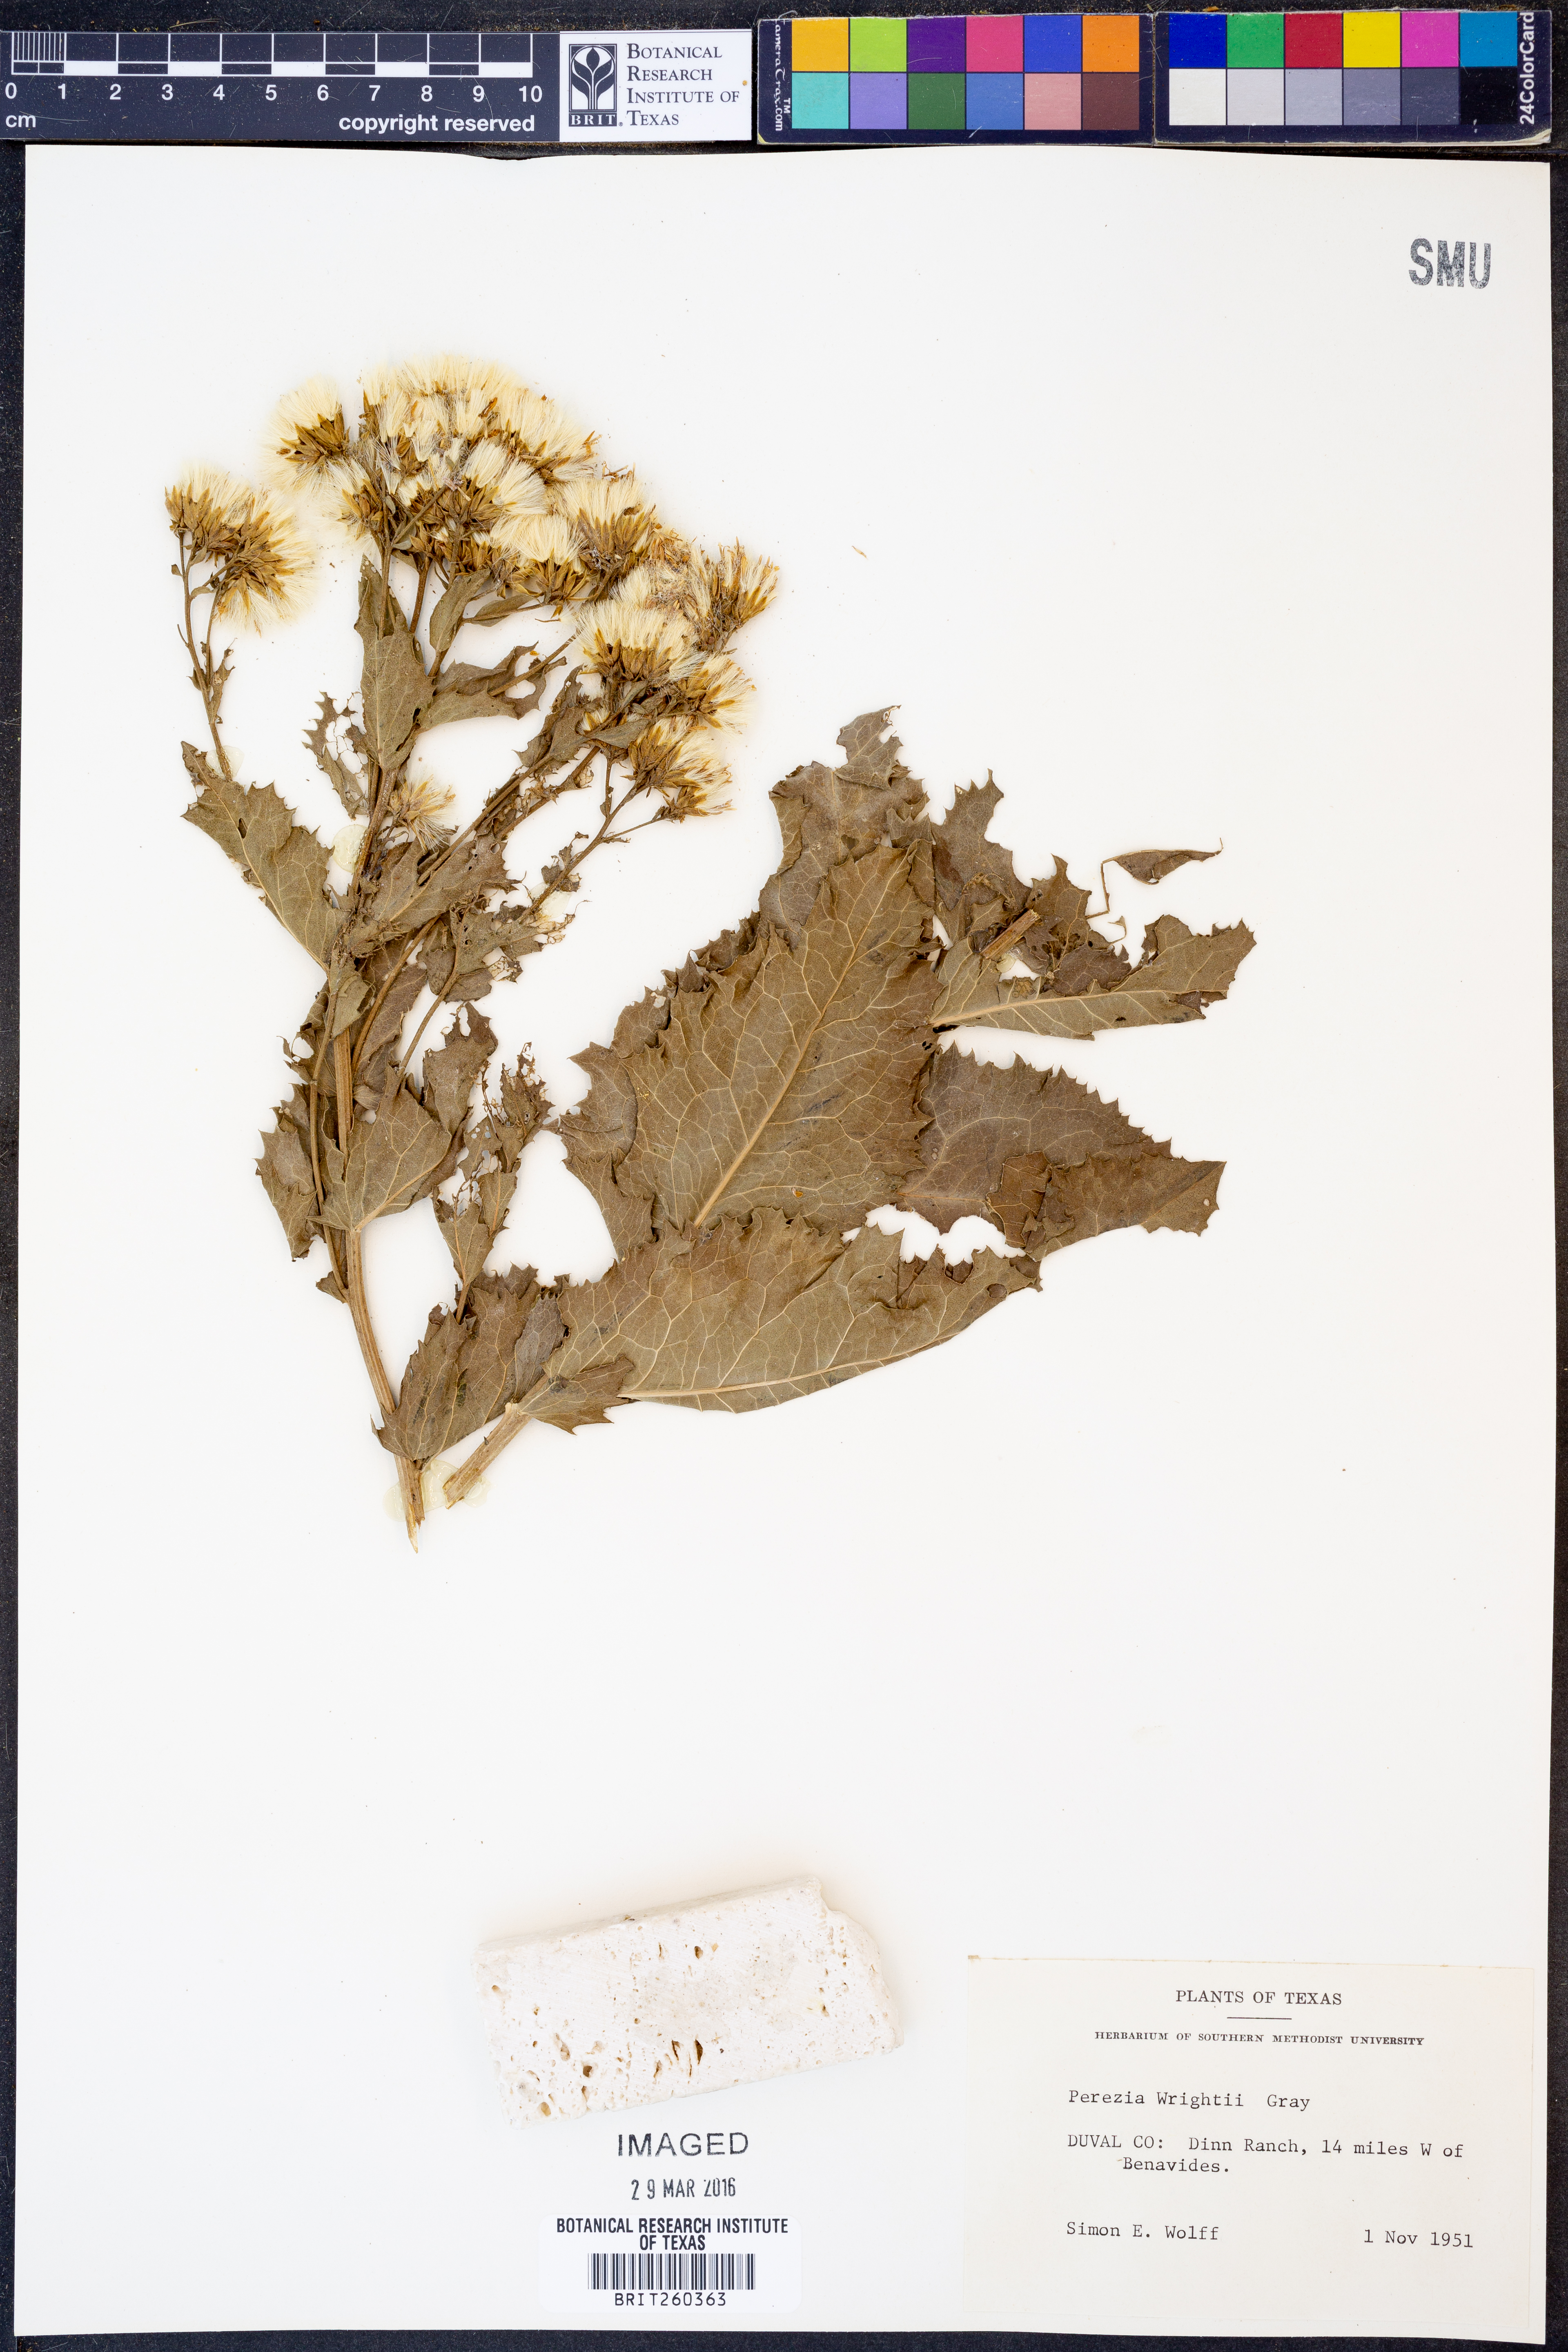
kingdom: Plantae
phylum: Tracheophyta
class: Magnoliopsida
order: Asterales
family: Asteraceae
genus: Acourtia
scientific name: Acourtia wrightii
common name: Brownfoot
